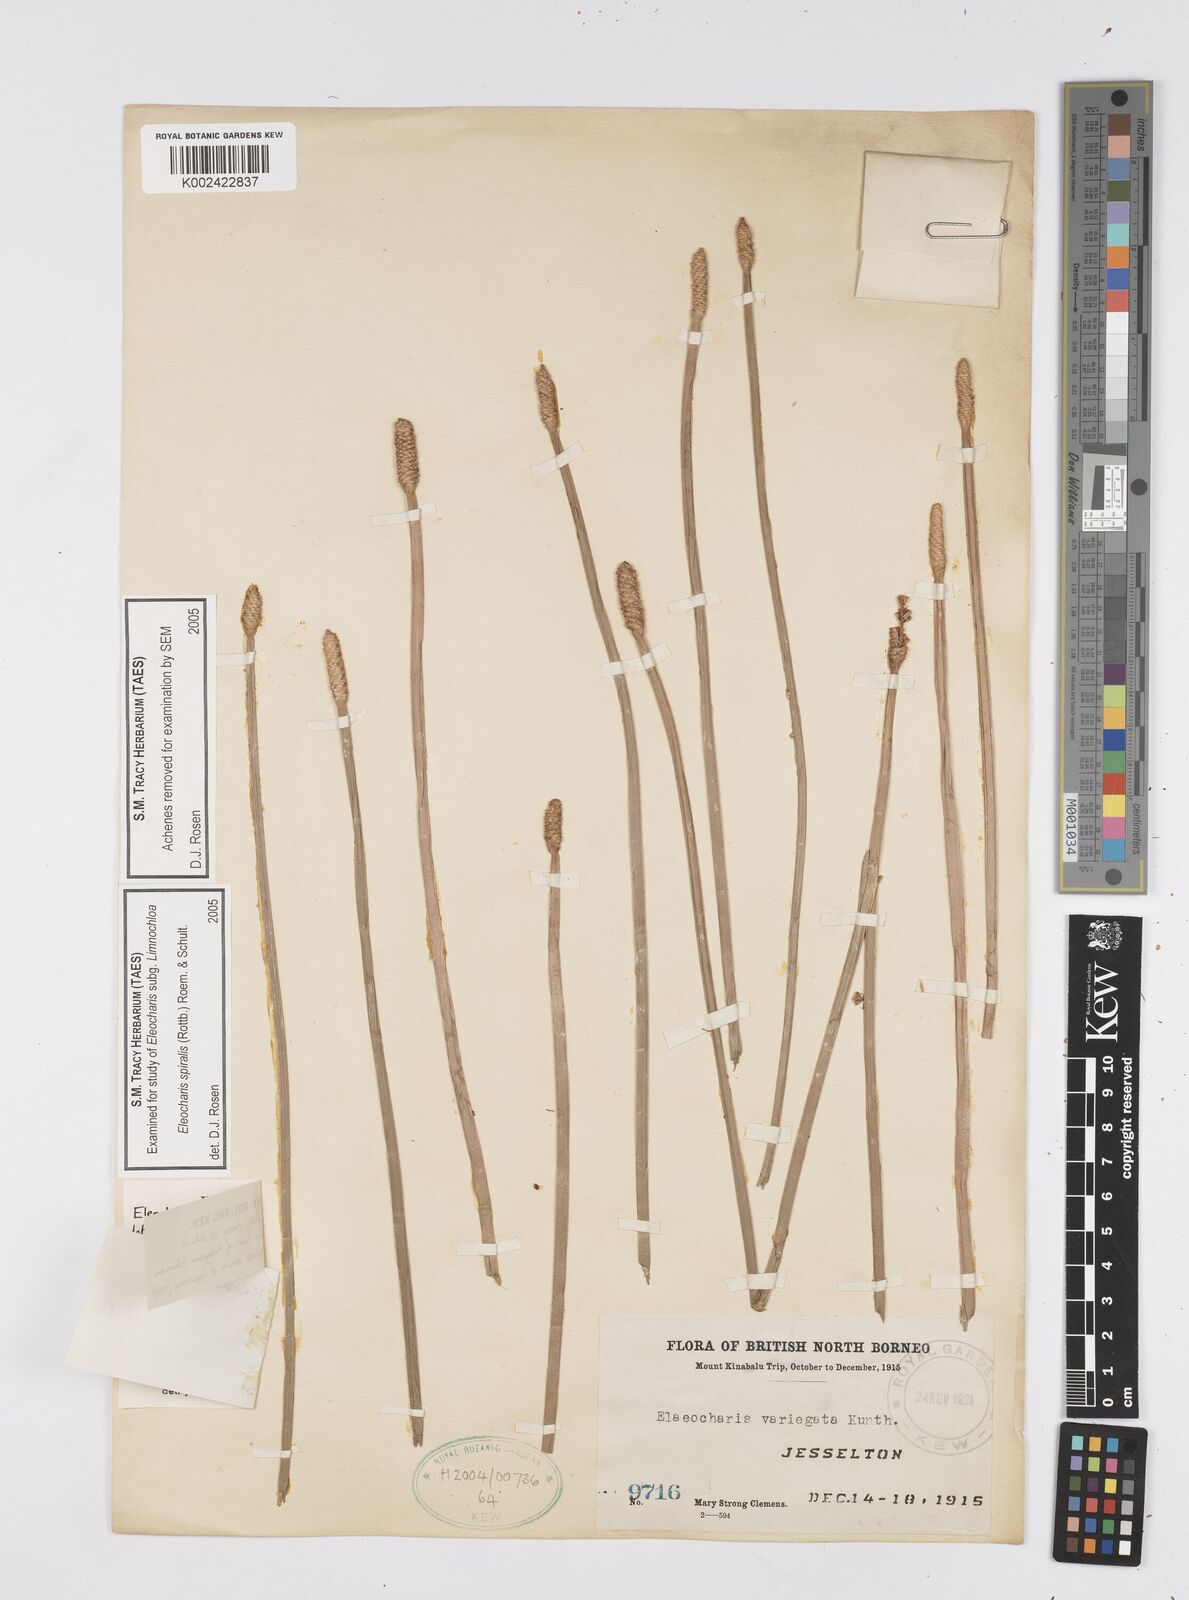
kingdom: Plantae
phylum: Tracheophyta
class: Liliopsida
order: Poales
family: Cyperaceae
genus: Eleocharis
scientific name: Eleocharis spiralis
